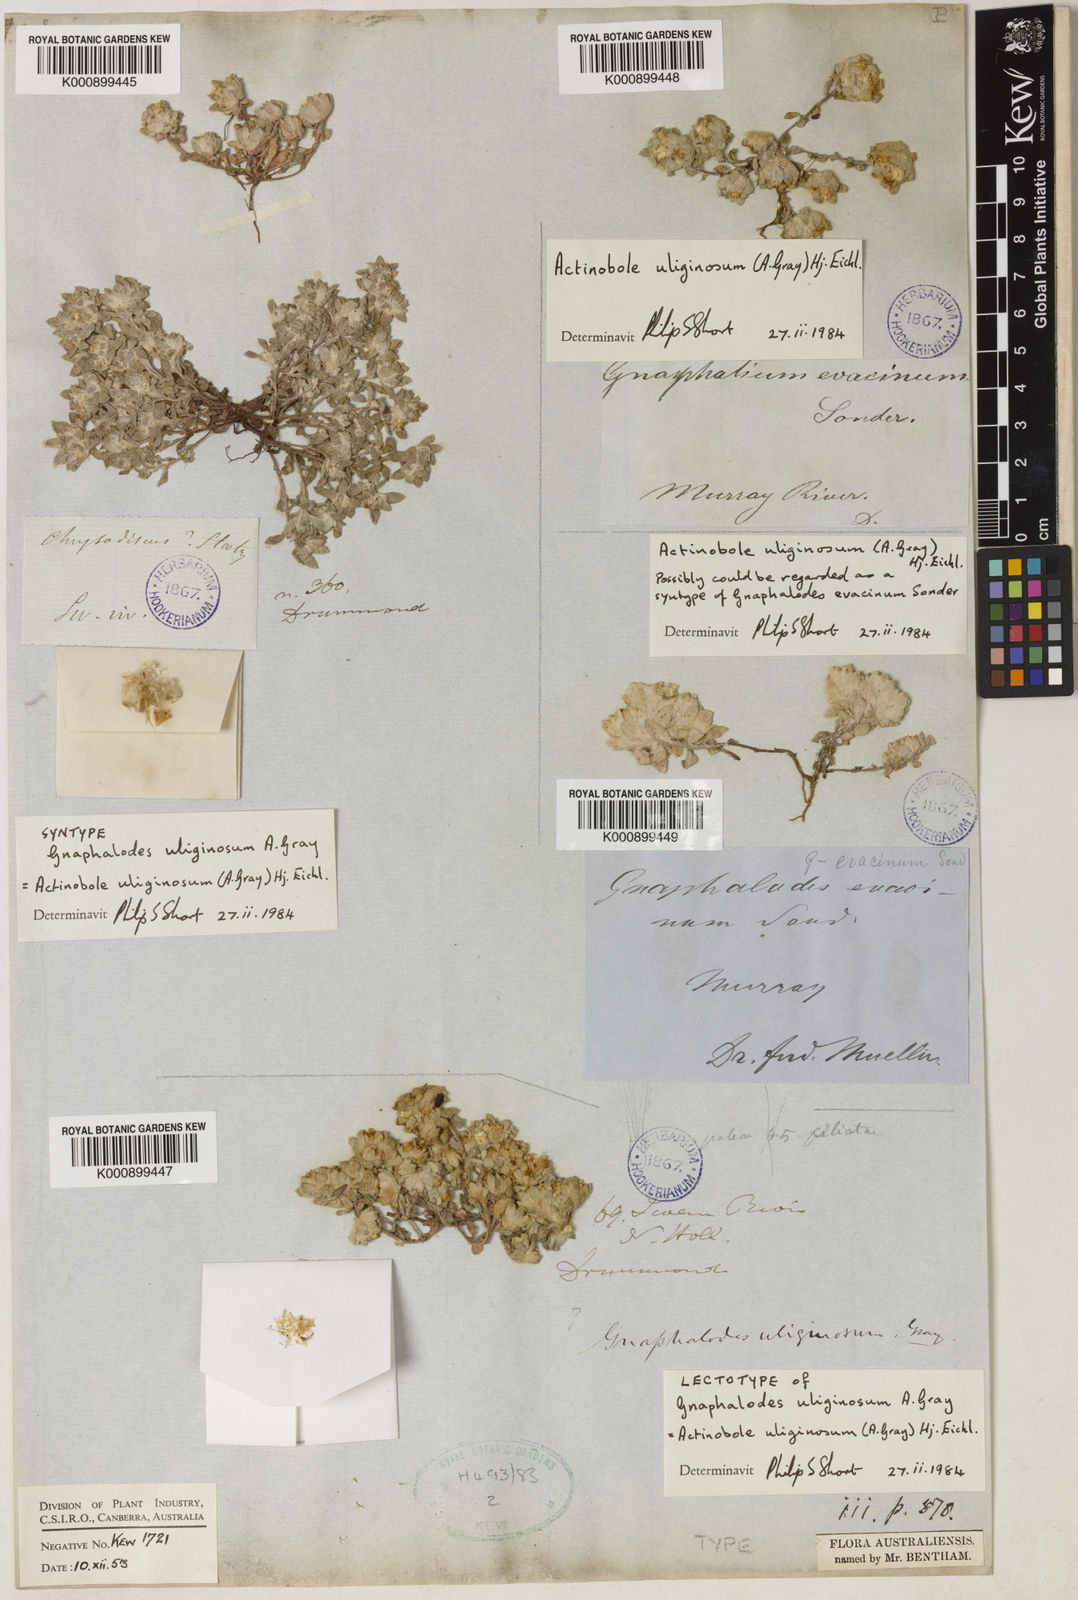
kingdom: Plantae
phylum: Tracheophyta
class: Magnoliopsida
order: Asterales
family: Asteraceae
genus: Actinobole
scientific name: Actinobole uliginosum
